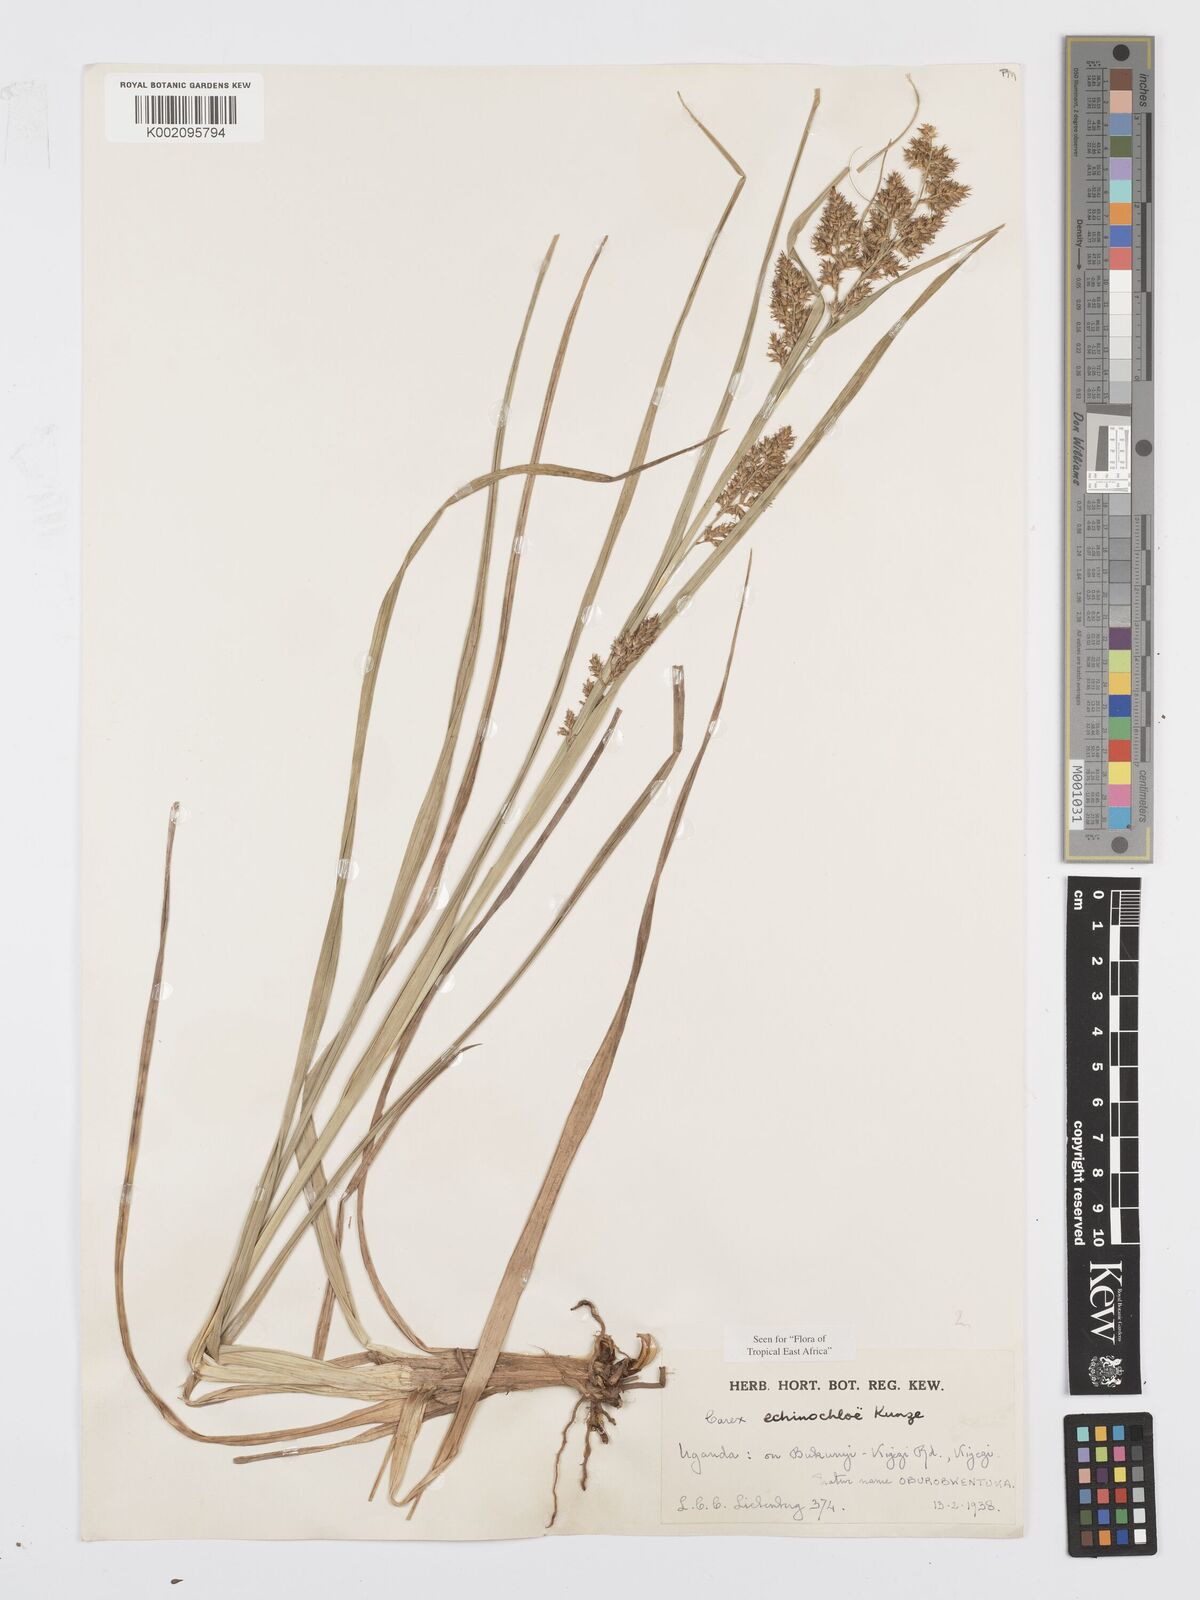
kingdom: Plantae
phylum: Tracheophyta
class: Liliopsida
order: Poales
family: Cyperaceae
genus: Carex
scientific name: Carex echinochloe
